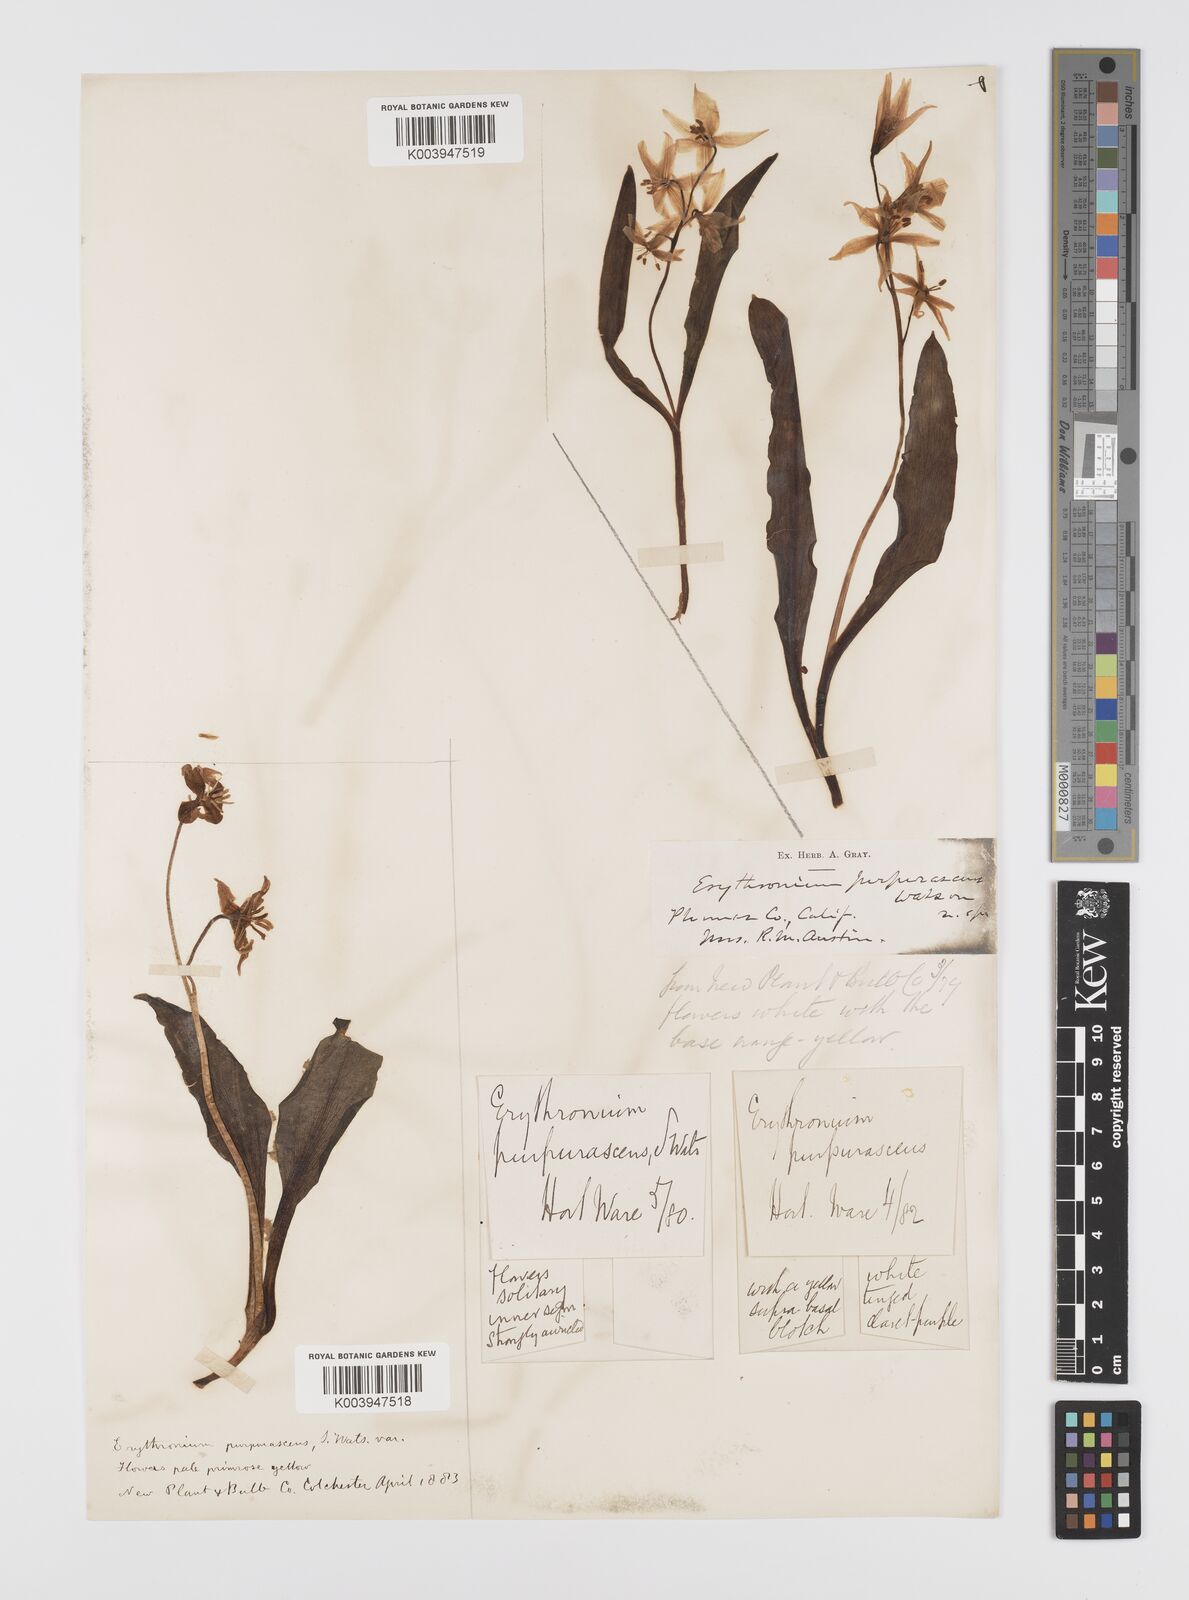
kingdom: Plantae
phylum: Tracheophyta
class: Liliopsida
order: Liliales
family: Liliaceae
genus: Erythronium
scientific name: Erythronium purpurascens
